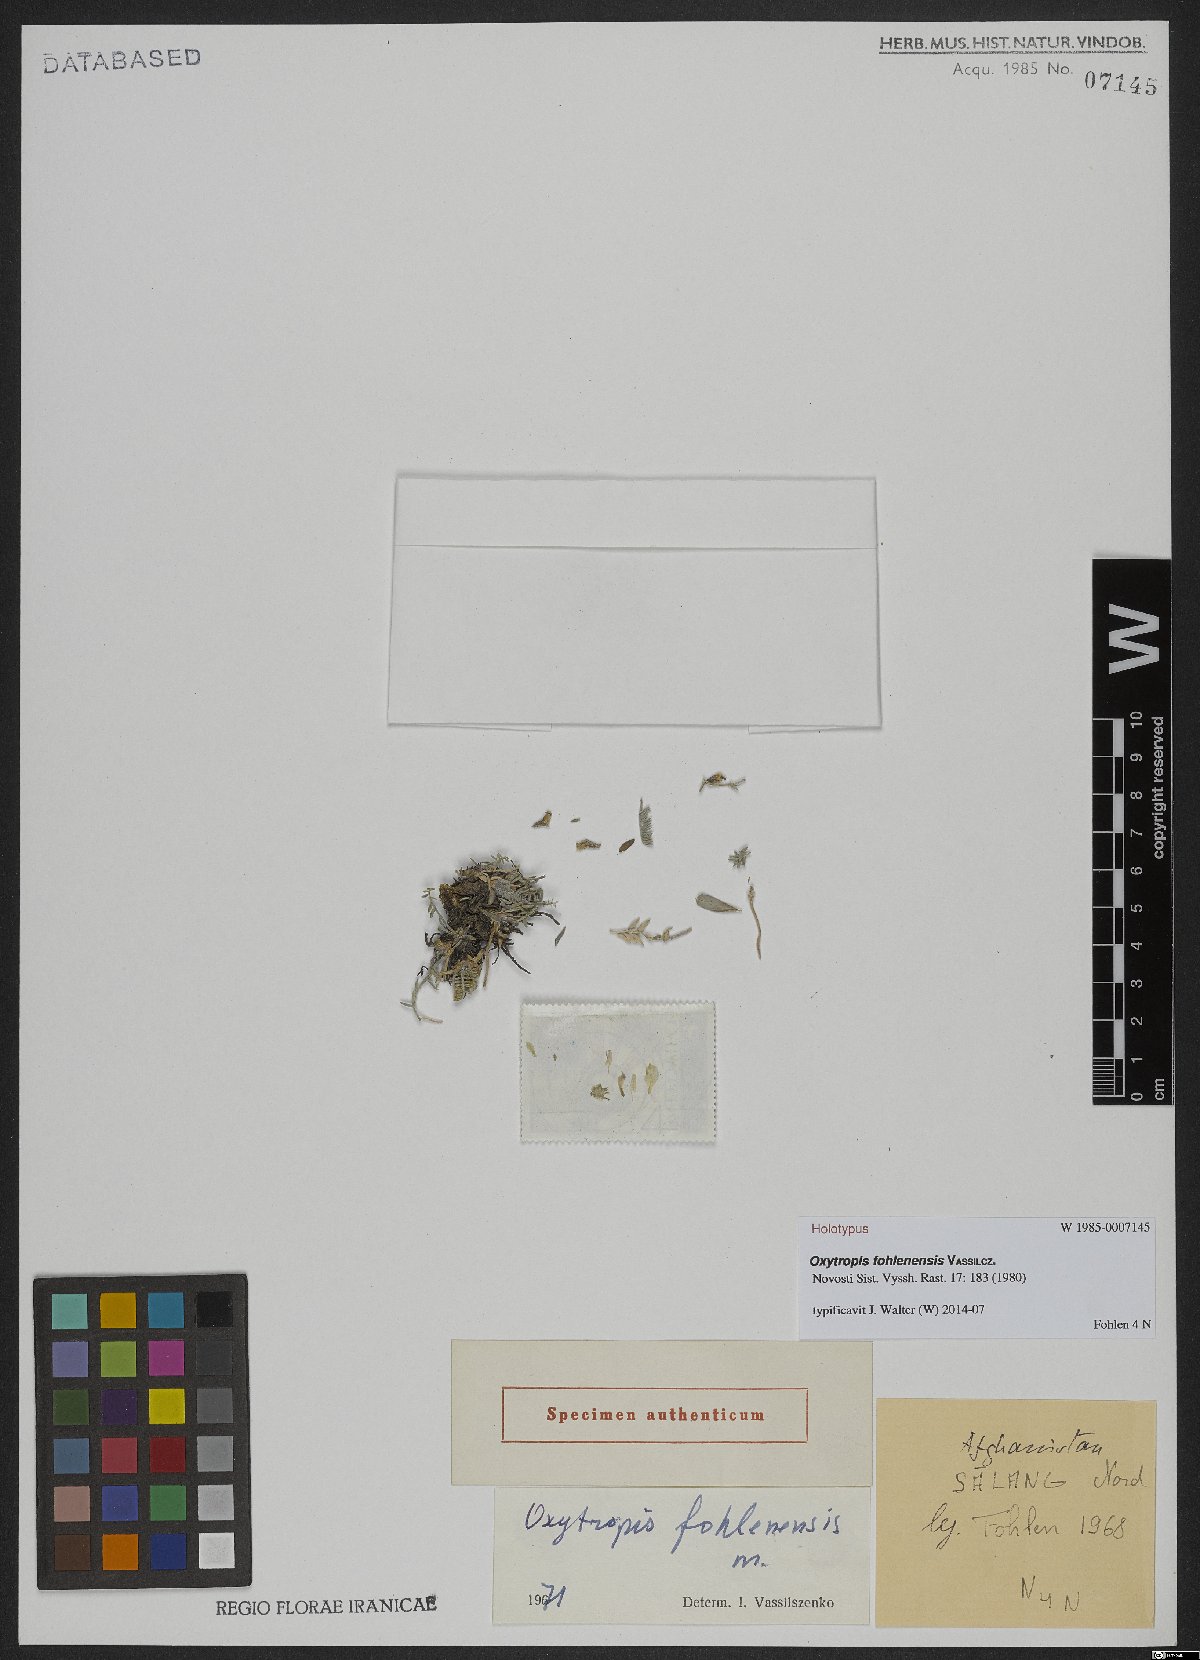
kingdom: Plantae
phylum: Tracheophyta
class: Magnoliopsida
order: Fabales
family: Fabaceae
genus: Oxytropis
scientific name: Oxytropis fohlenensis
